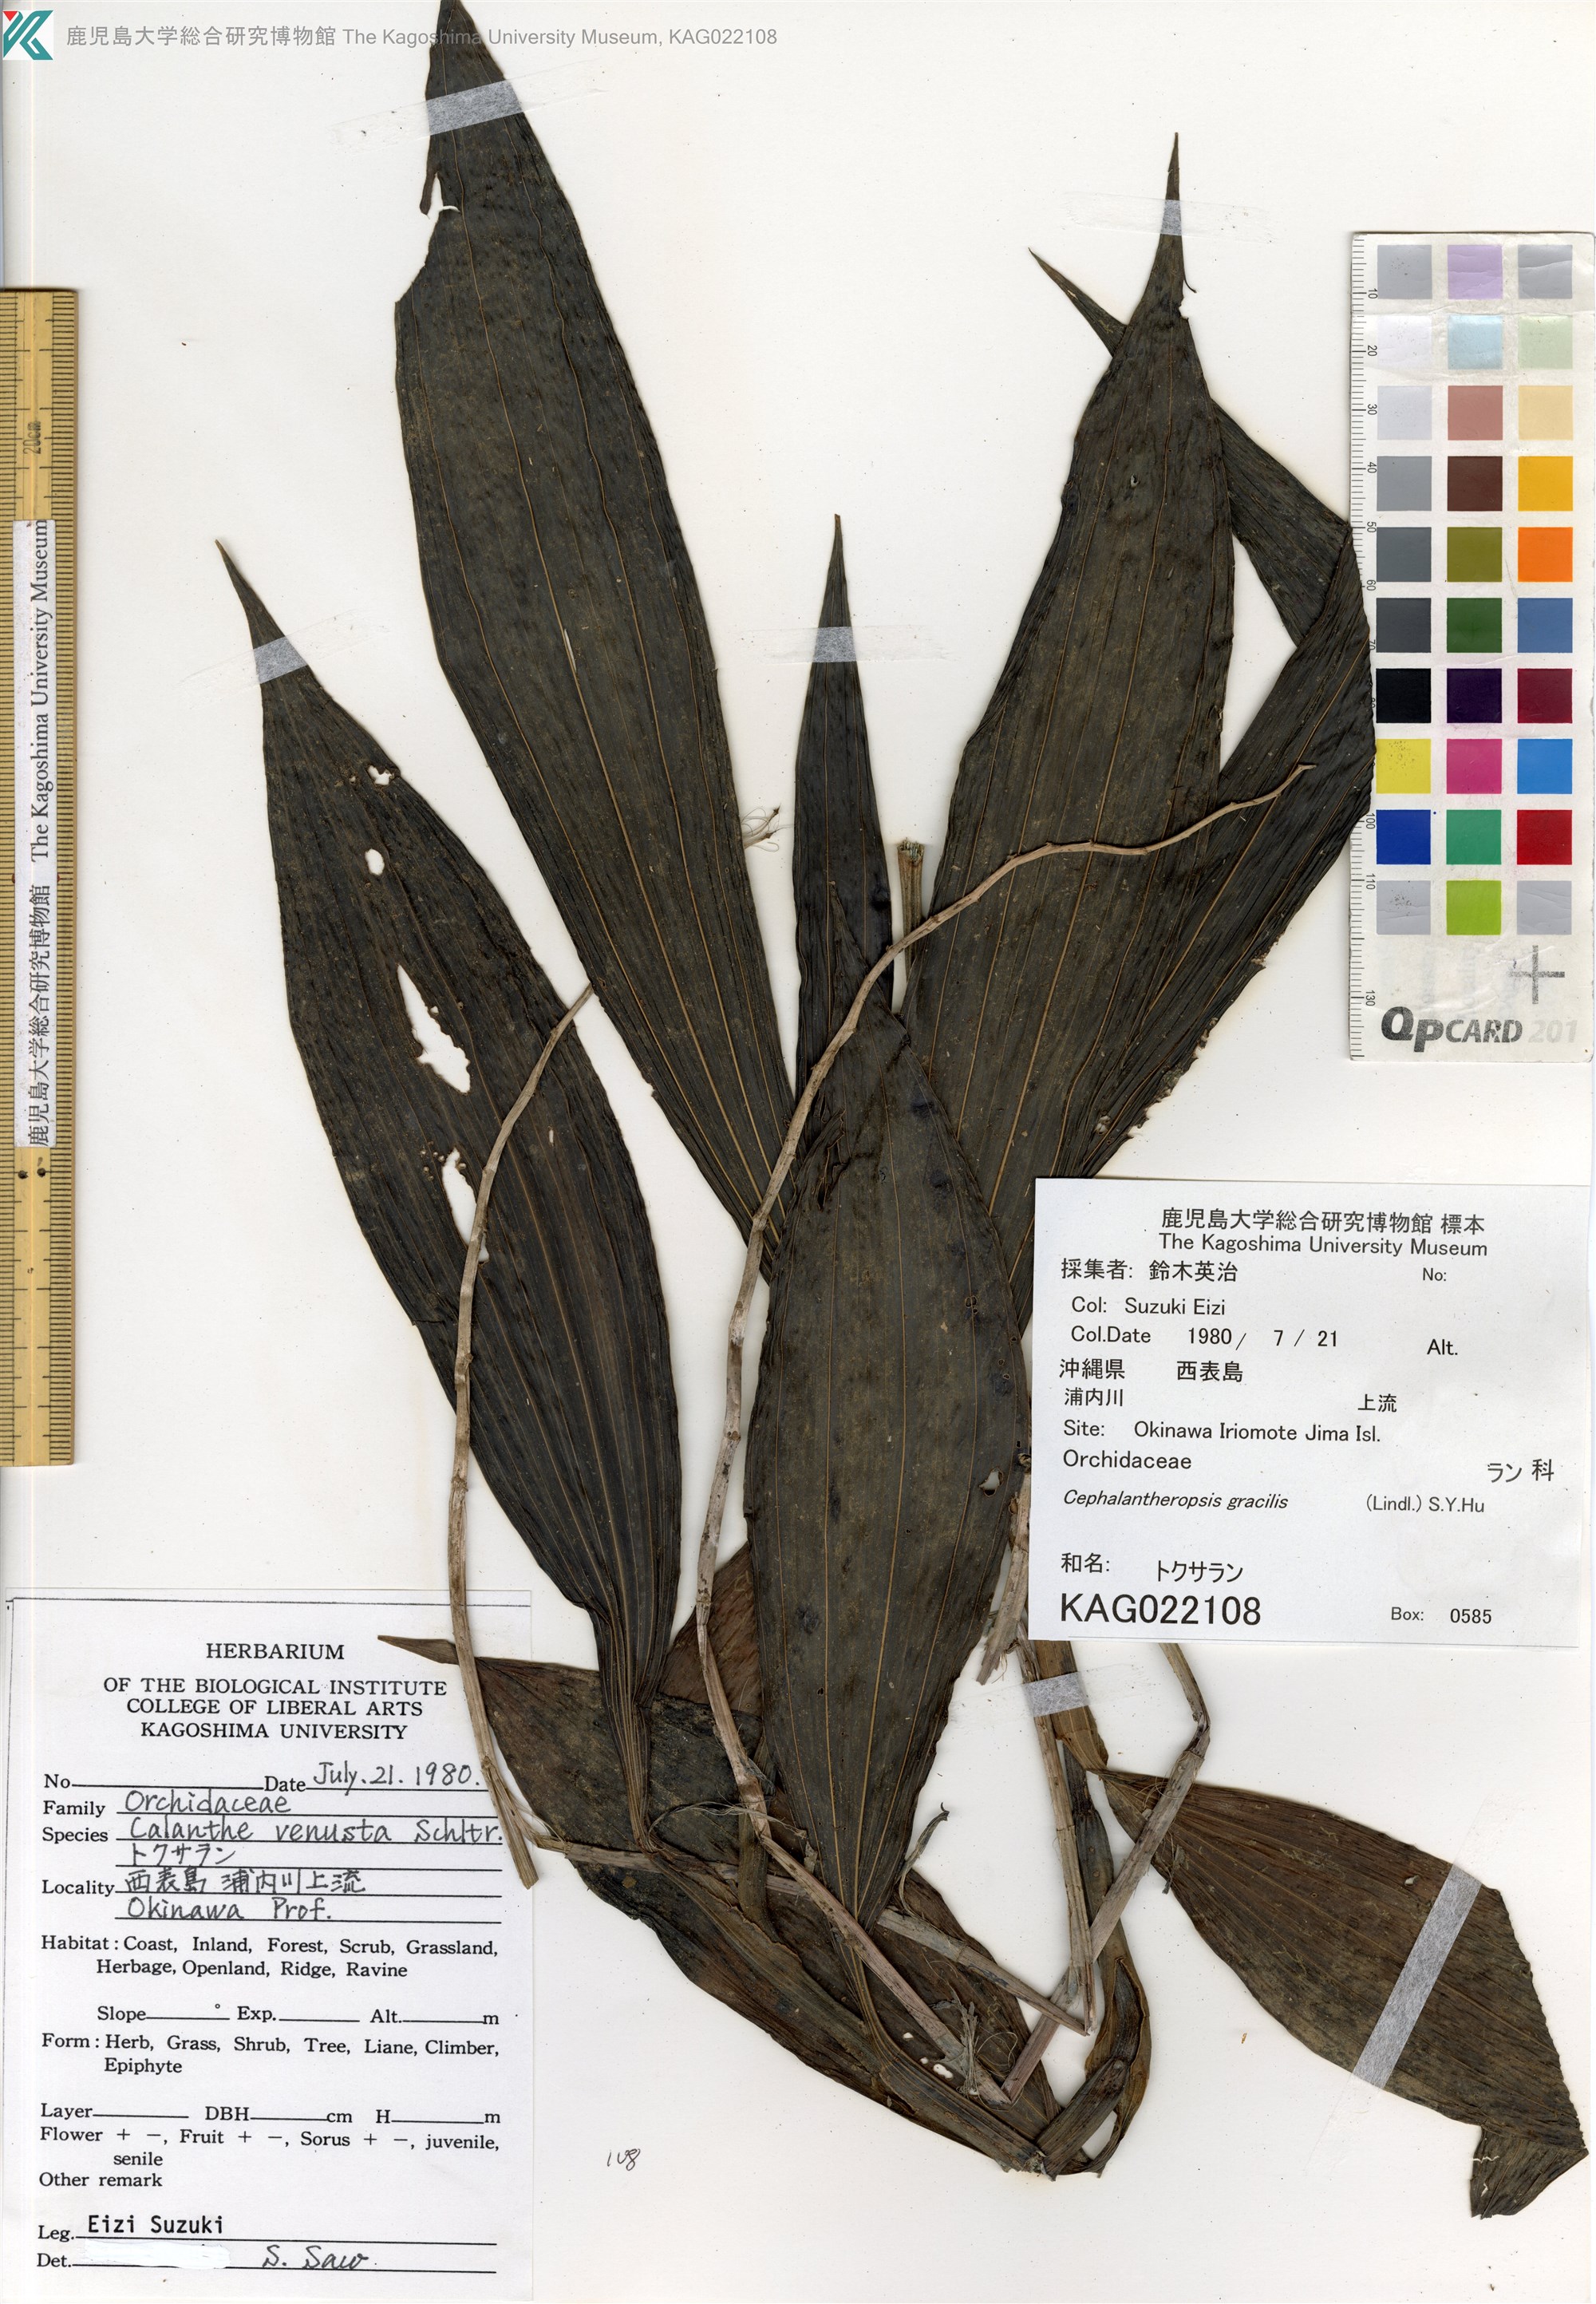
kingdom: Plantae
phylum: Tracheophyta
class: Liliopsida
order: Asparagales
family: Orchidaceae
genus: Calanthe
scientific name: Calanthe obcordata
